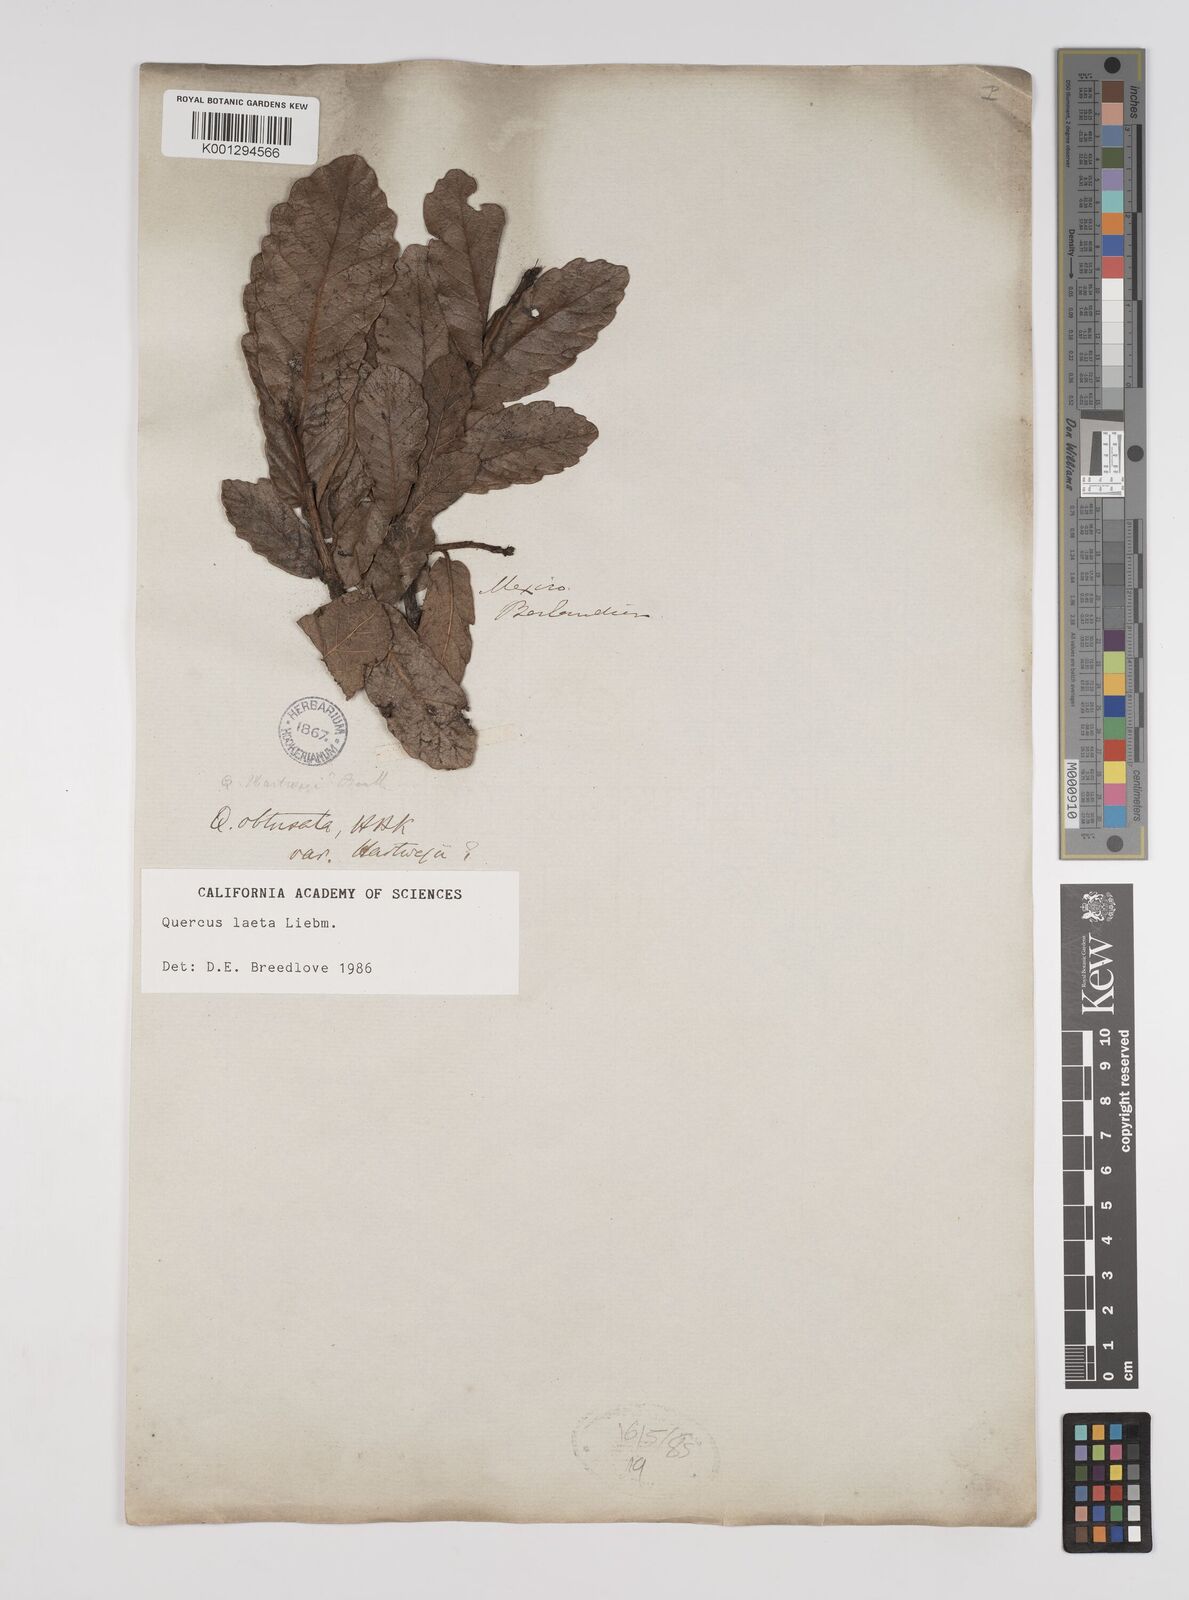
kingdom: Plantae
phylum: Tracheophyta
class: Magnoliopsida
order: Fagales
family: Fagaceae
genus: Quercus
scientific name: Quercus laeta
